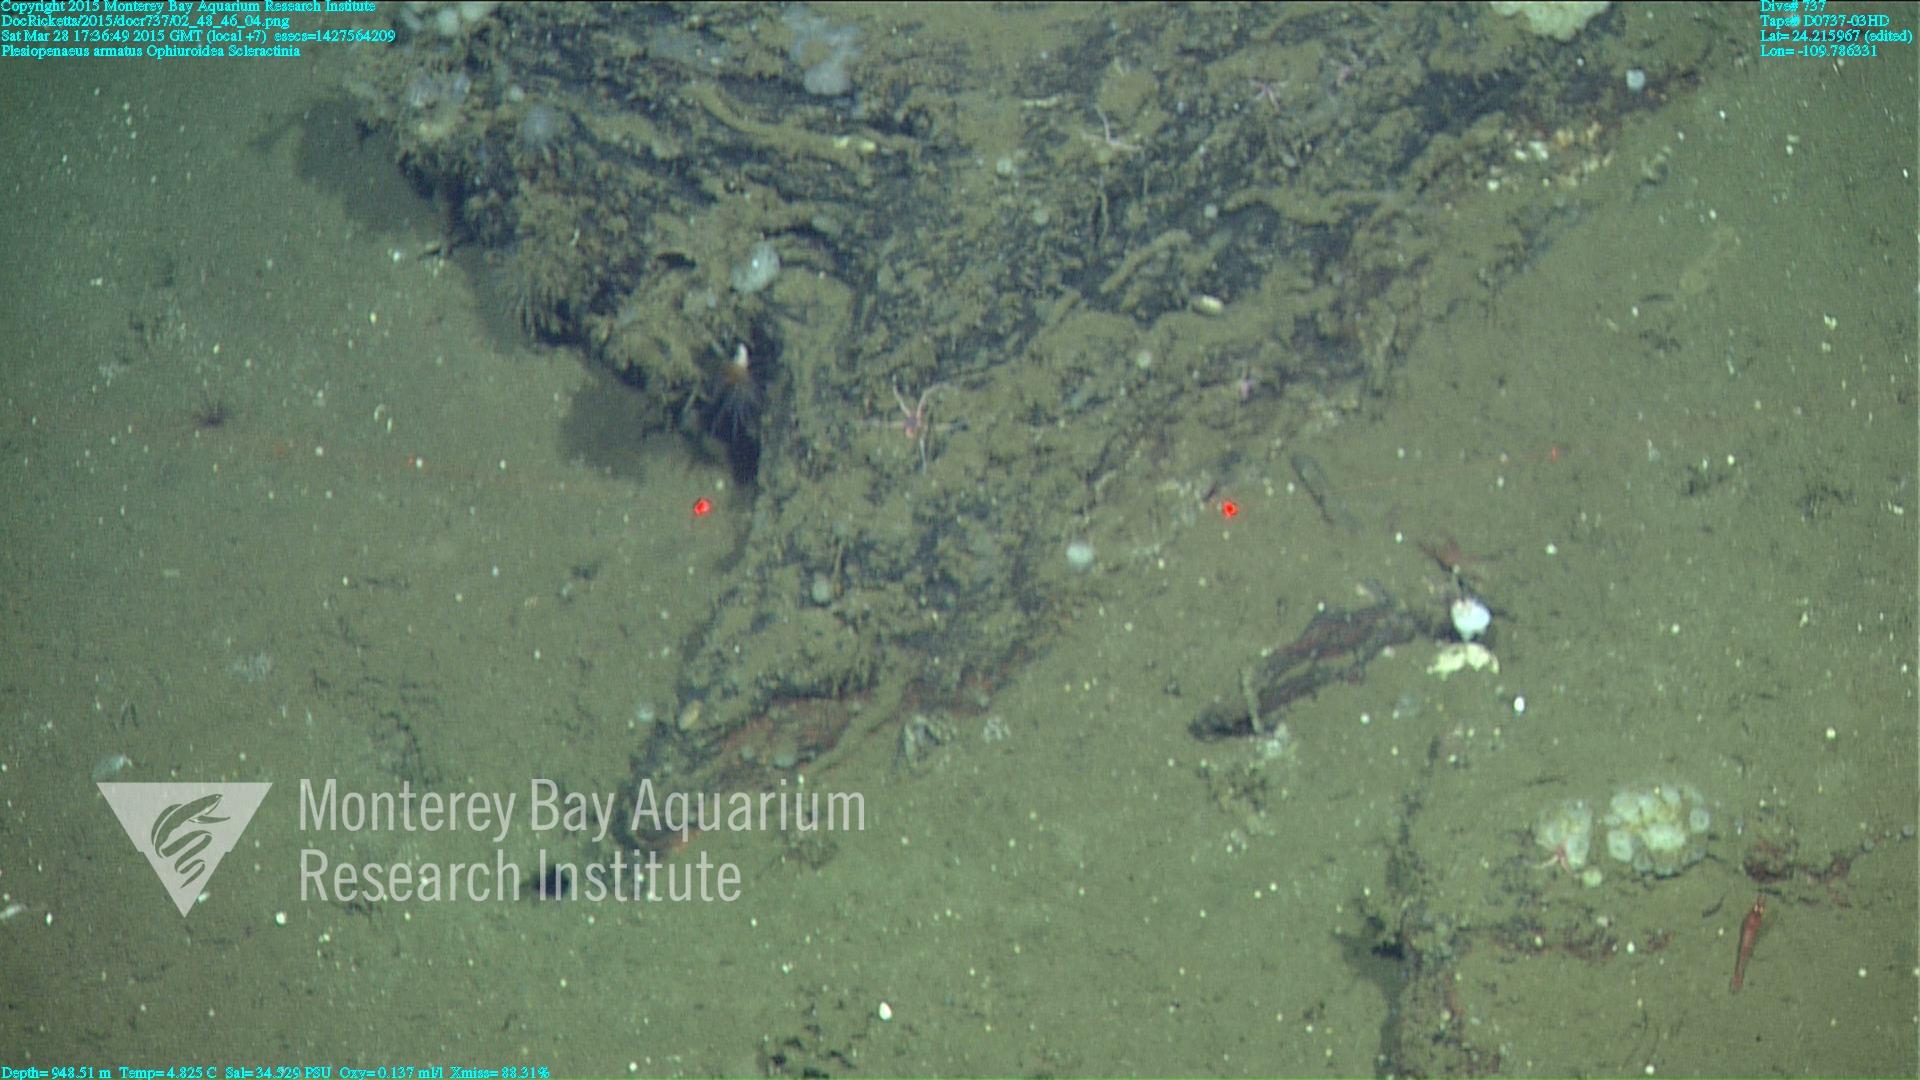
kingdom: Animalia
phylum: Cnidaria
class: Anthozoa
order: Scleractinia
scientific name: Scleractinia
